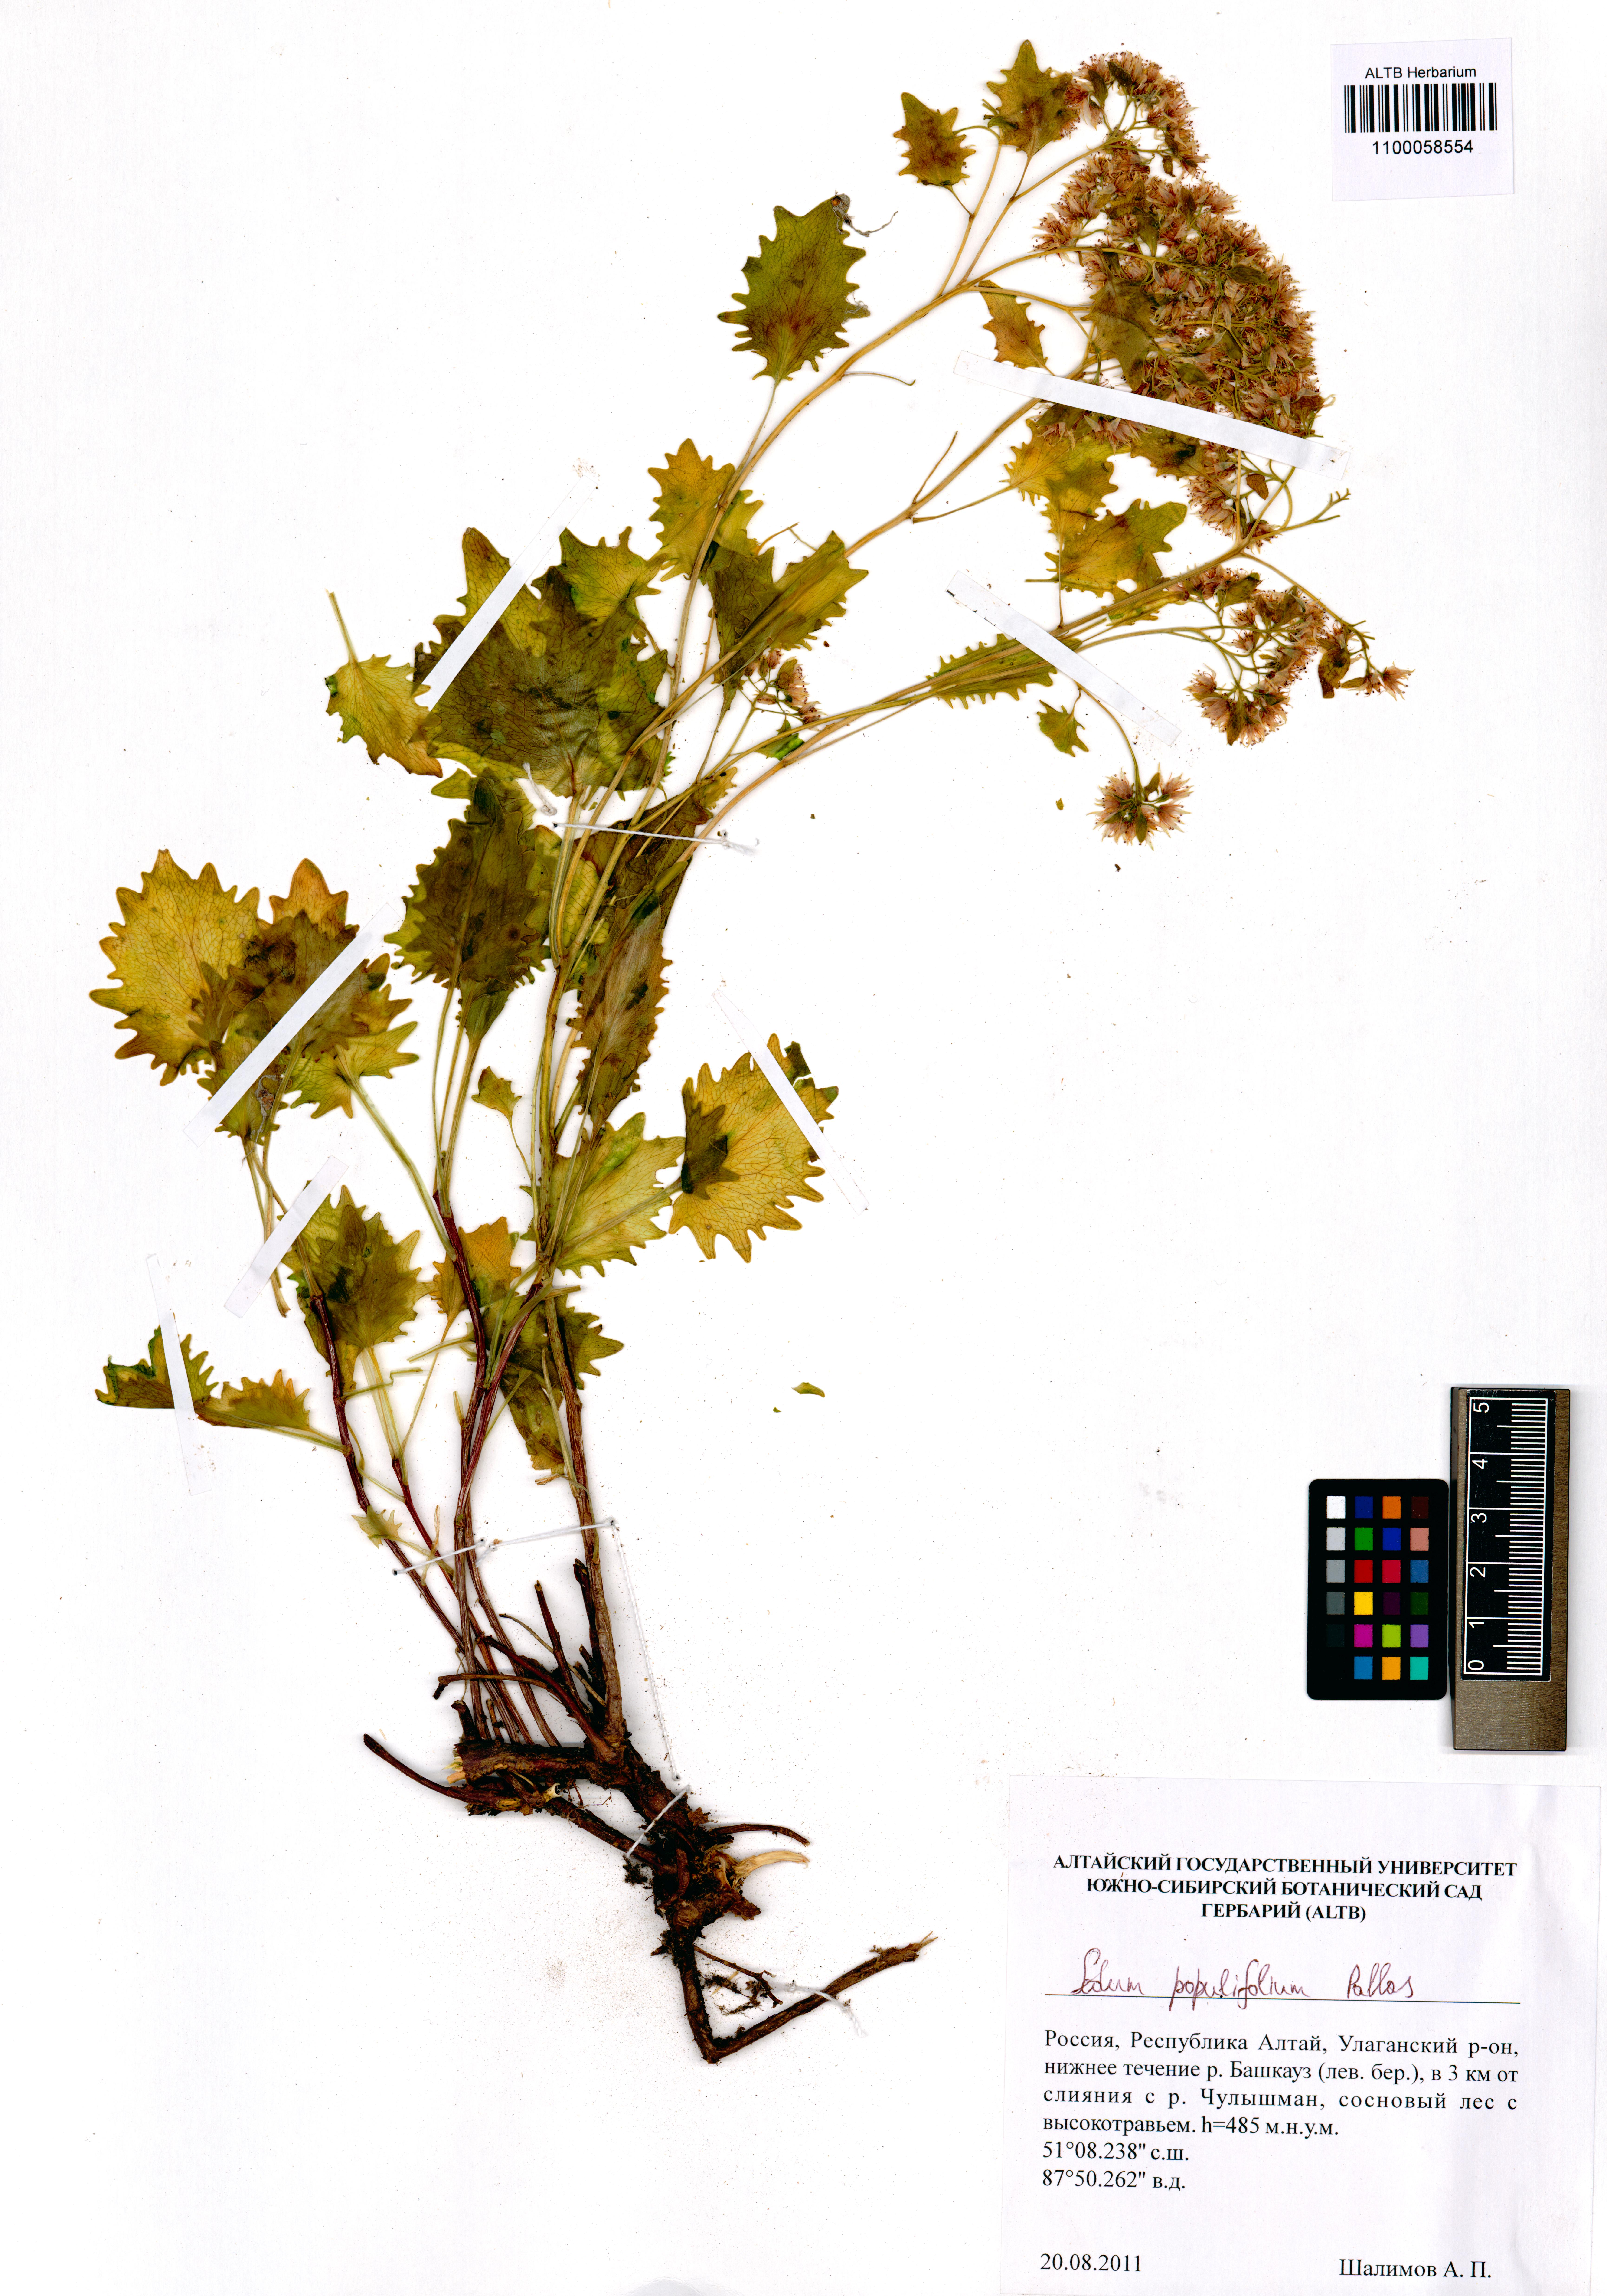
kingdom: Plantae
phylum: Tracheophyta
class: Magnoliopsida
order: Saxifragales
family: Crassulaceae
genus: Hylotelephium
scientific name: Hylotelephium populifolium
